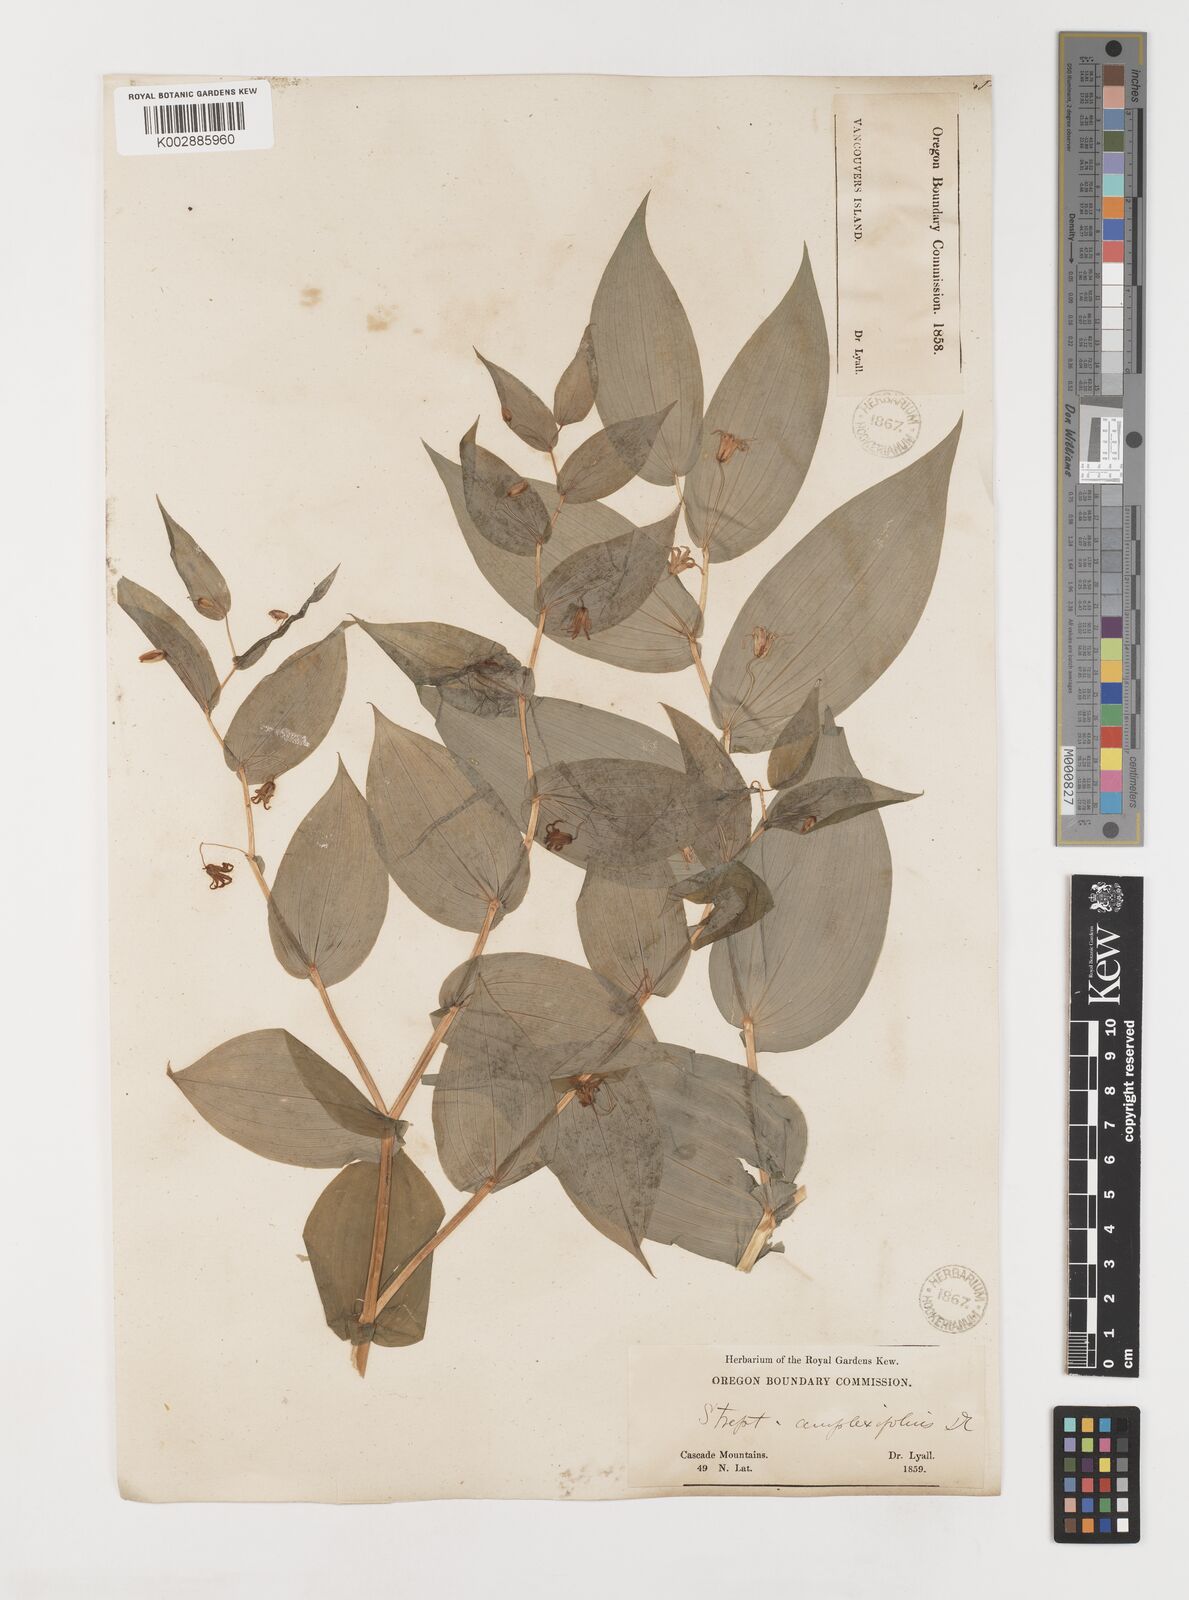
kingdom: Plantae
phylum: Tracheophyta
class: Liliopsida
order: Liliales
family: Liliaceae
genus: Streptopus
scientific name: Streptopus amplexifolius
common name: Clasp twisted stalk
